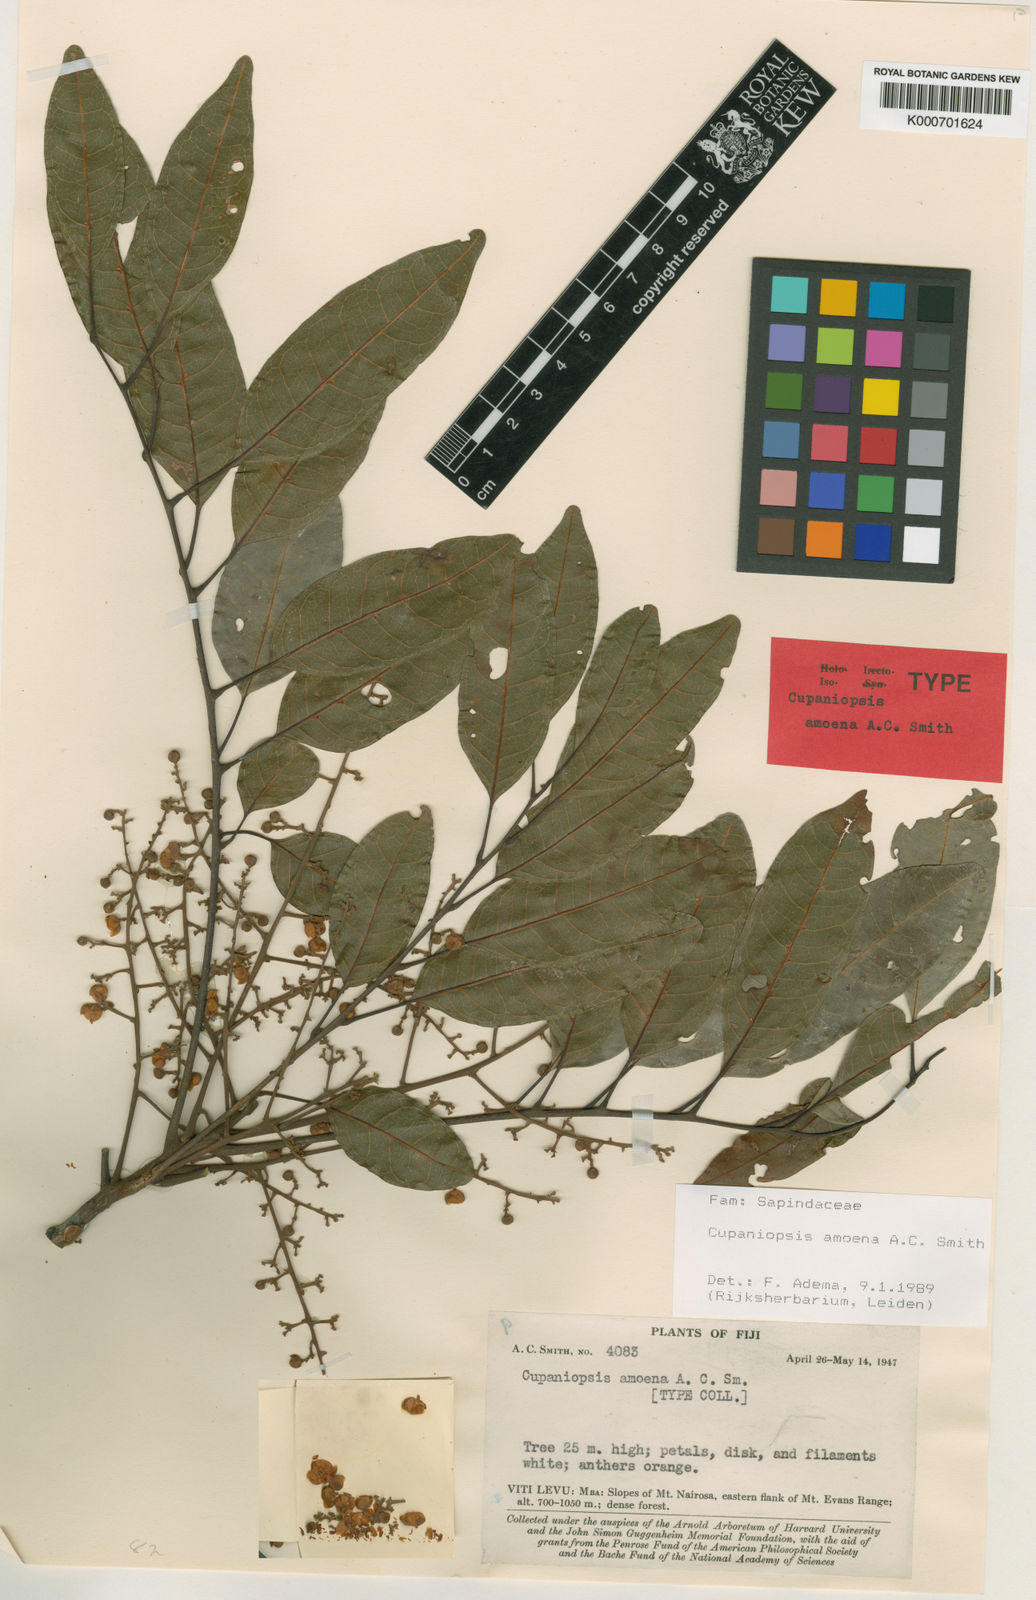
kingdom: Plantae
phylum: Tracheophyta
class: Magnoliopsida
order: Sapindales
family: Sapindaceae
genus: Cupaniopsis
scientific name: Cupaniopsis amoena
